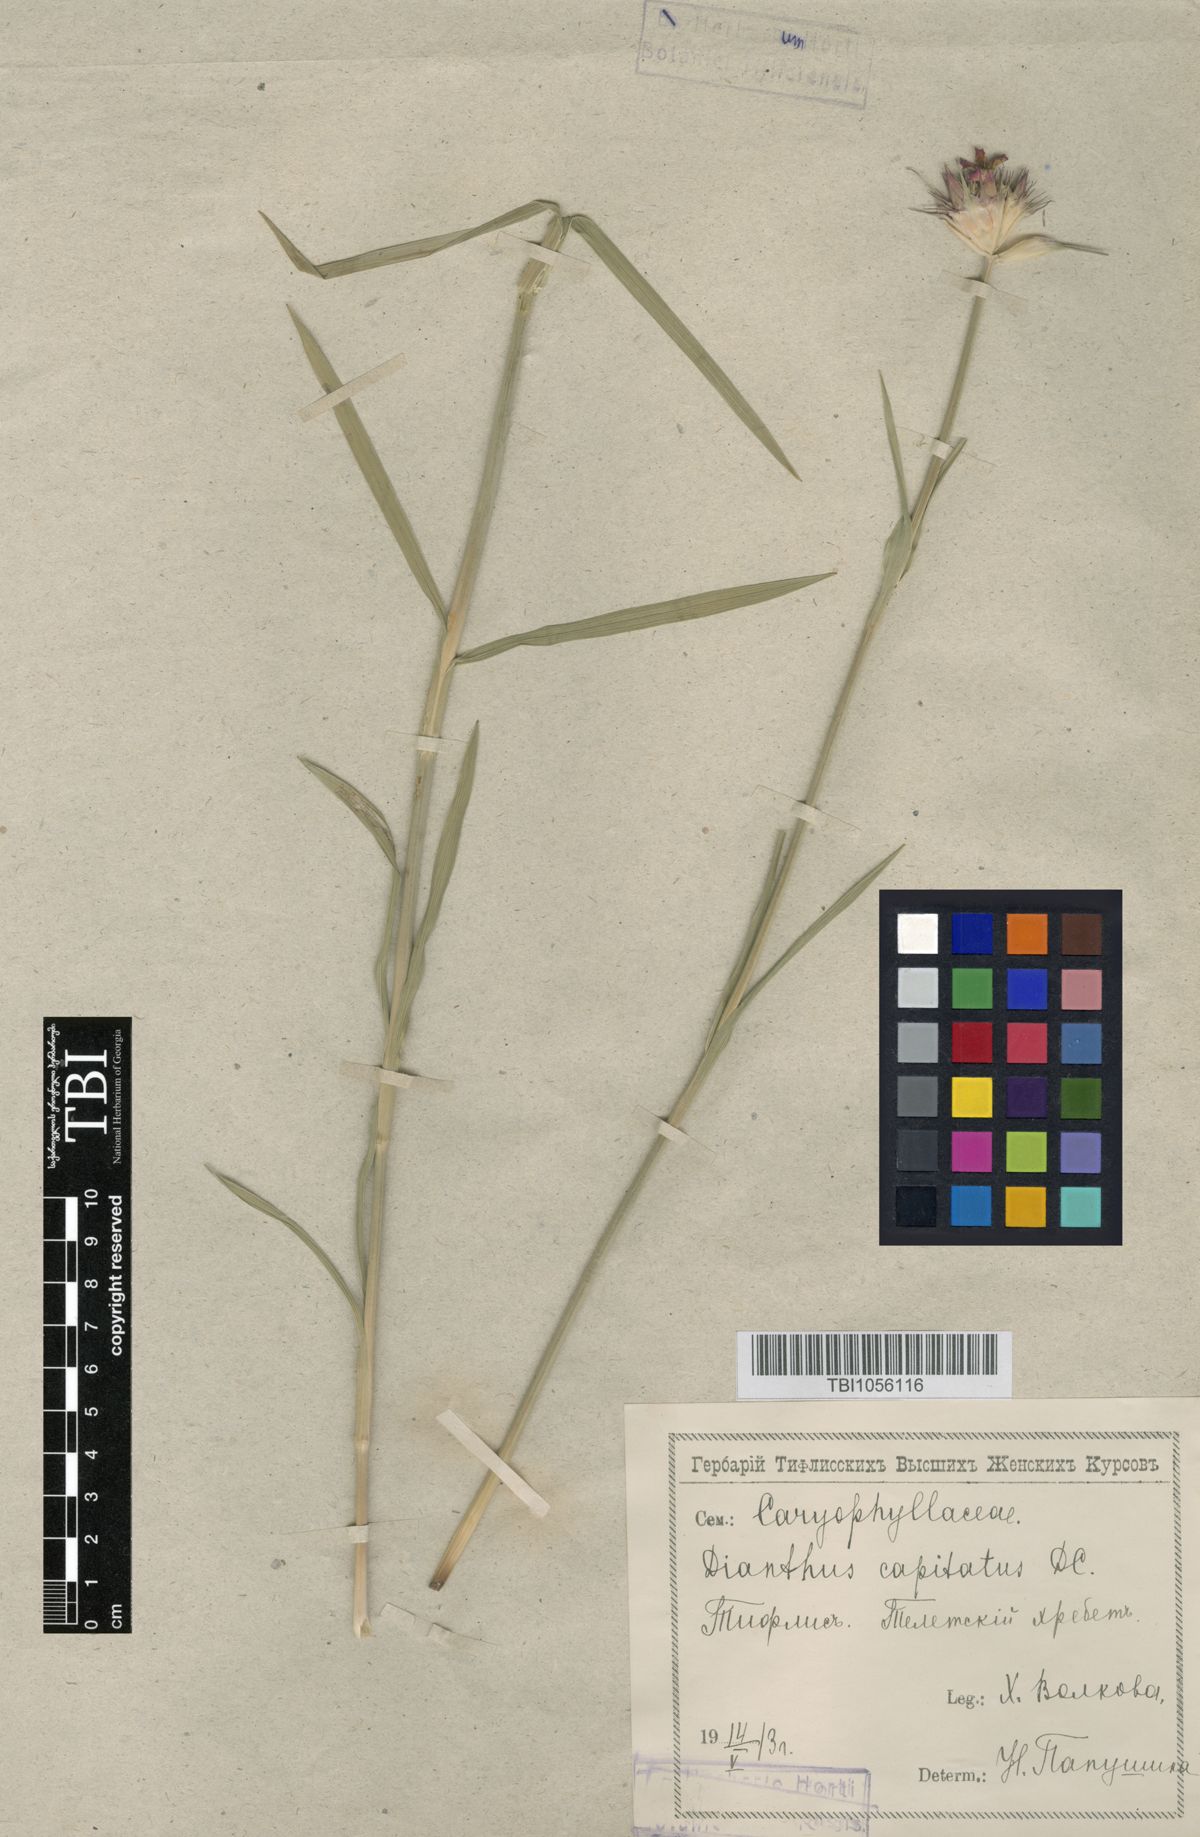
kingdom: Plantae
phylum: Tracheophyta
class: Magnoliopsida
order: Caryophyllales
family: Caryophyllaceae
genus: Dianthus
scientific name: Dianthus subulosus
